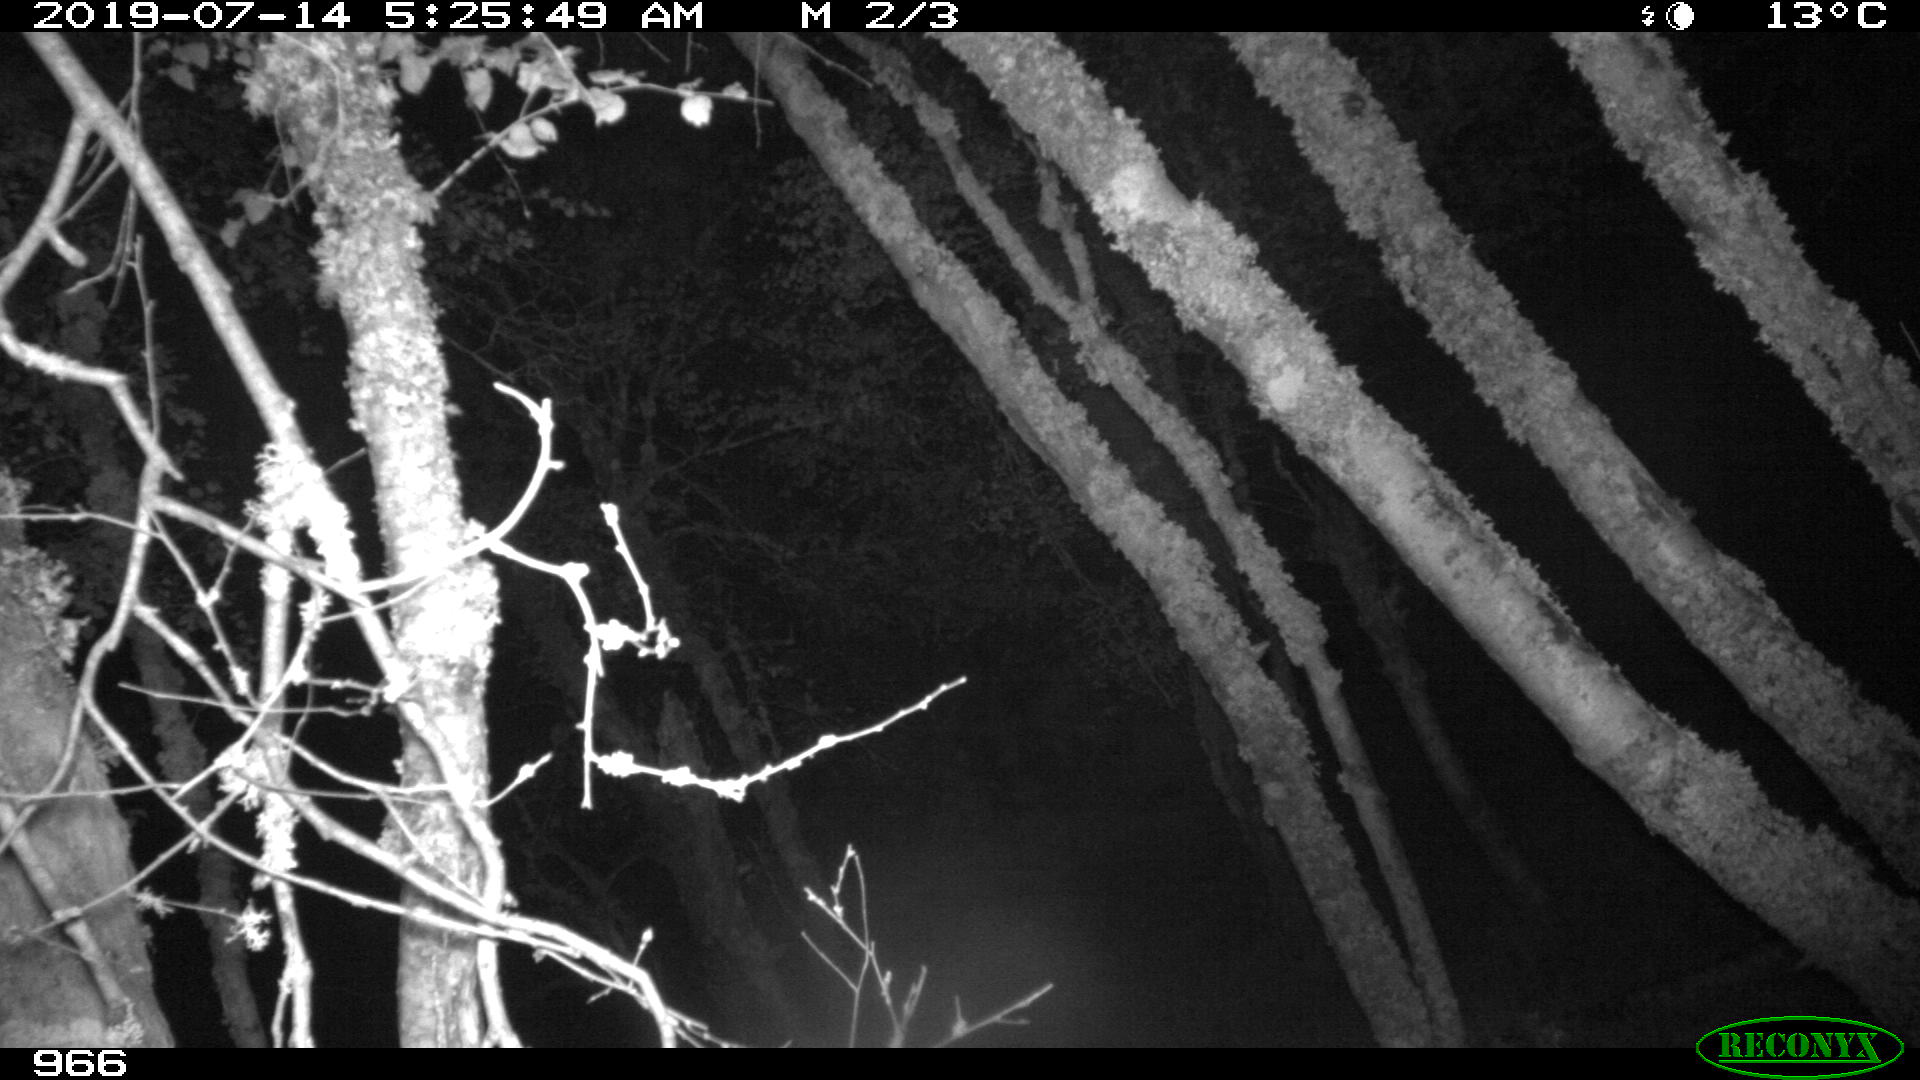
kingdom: Animalia
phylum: Chordata
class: Mammalia
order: Perissodactyla
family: Equidae
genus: Equus
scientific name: Equus caballus
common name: Horse
